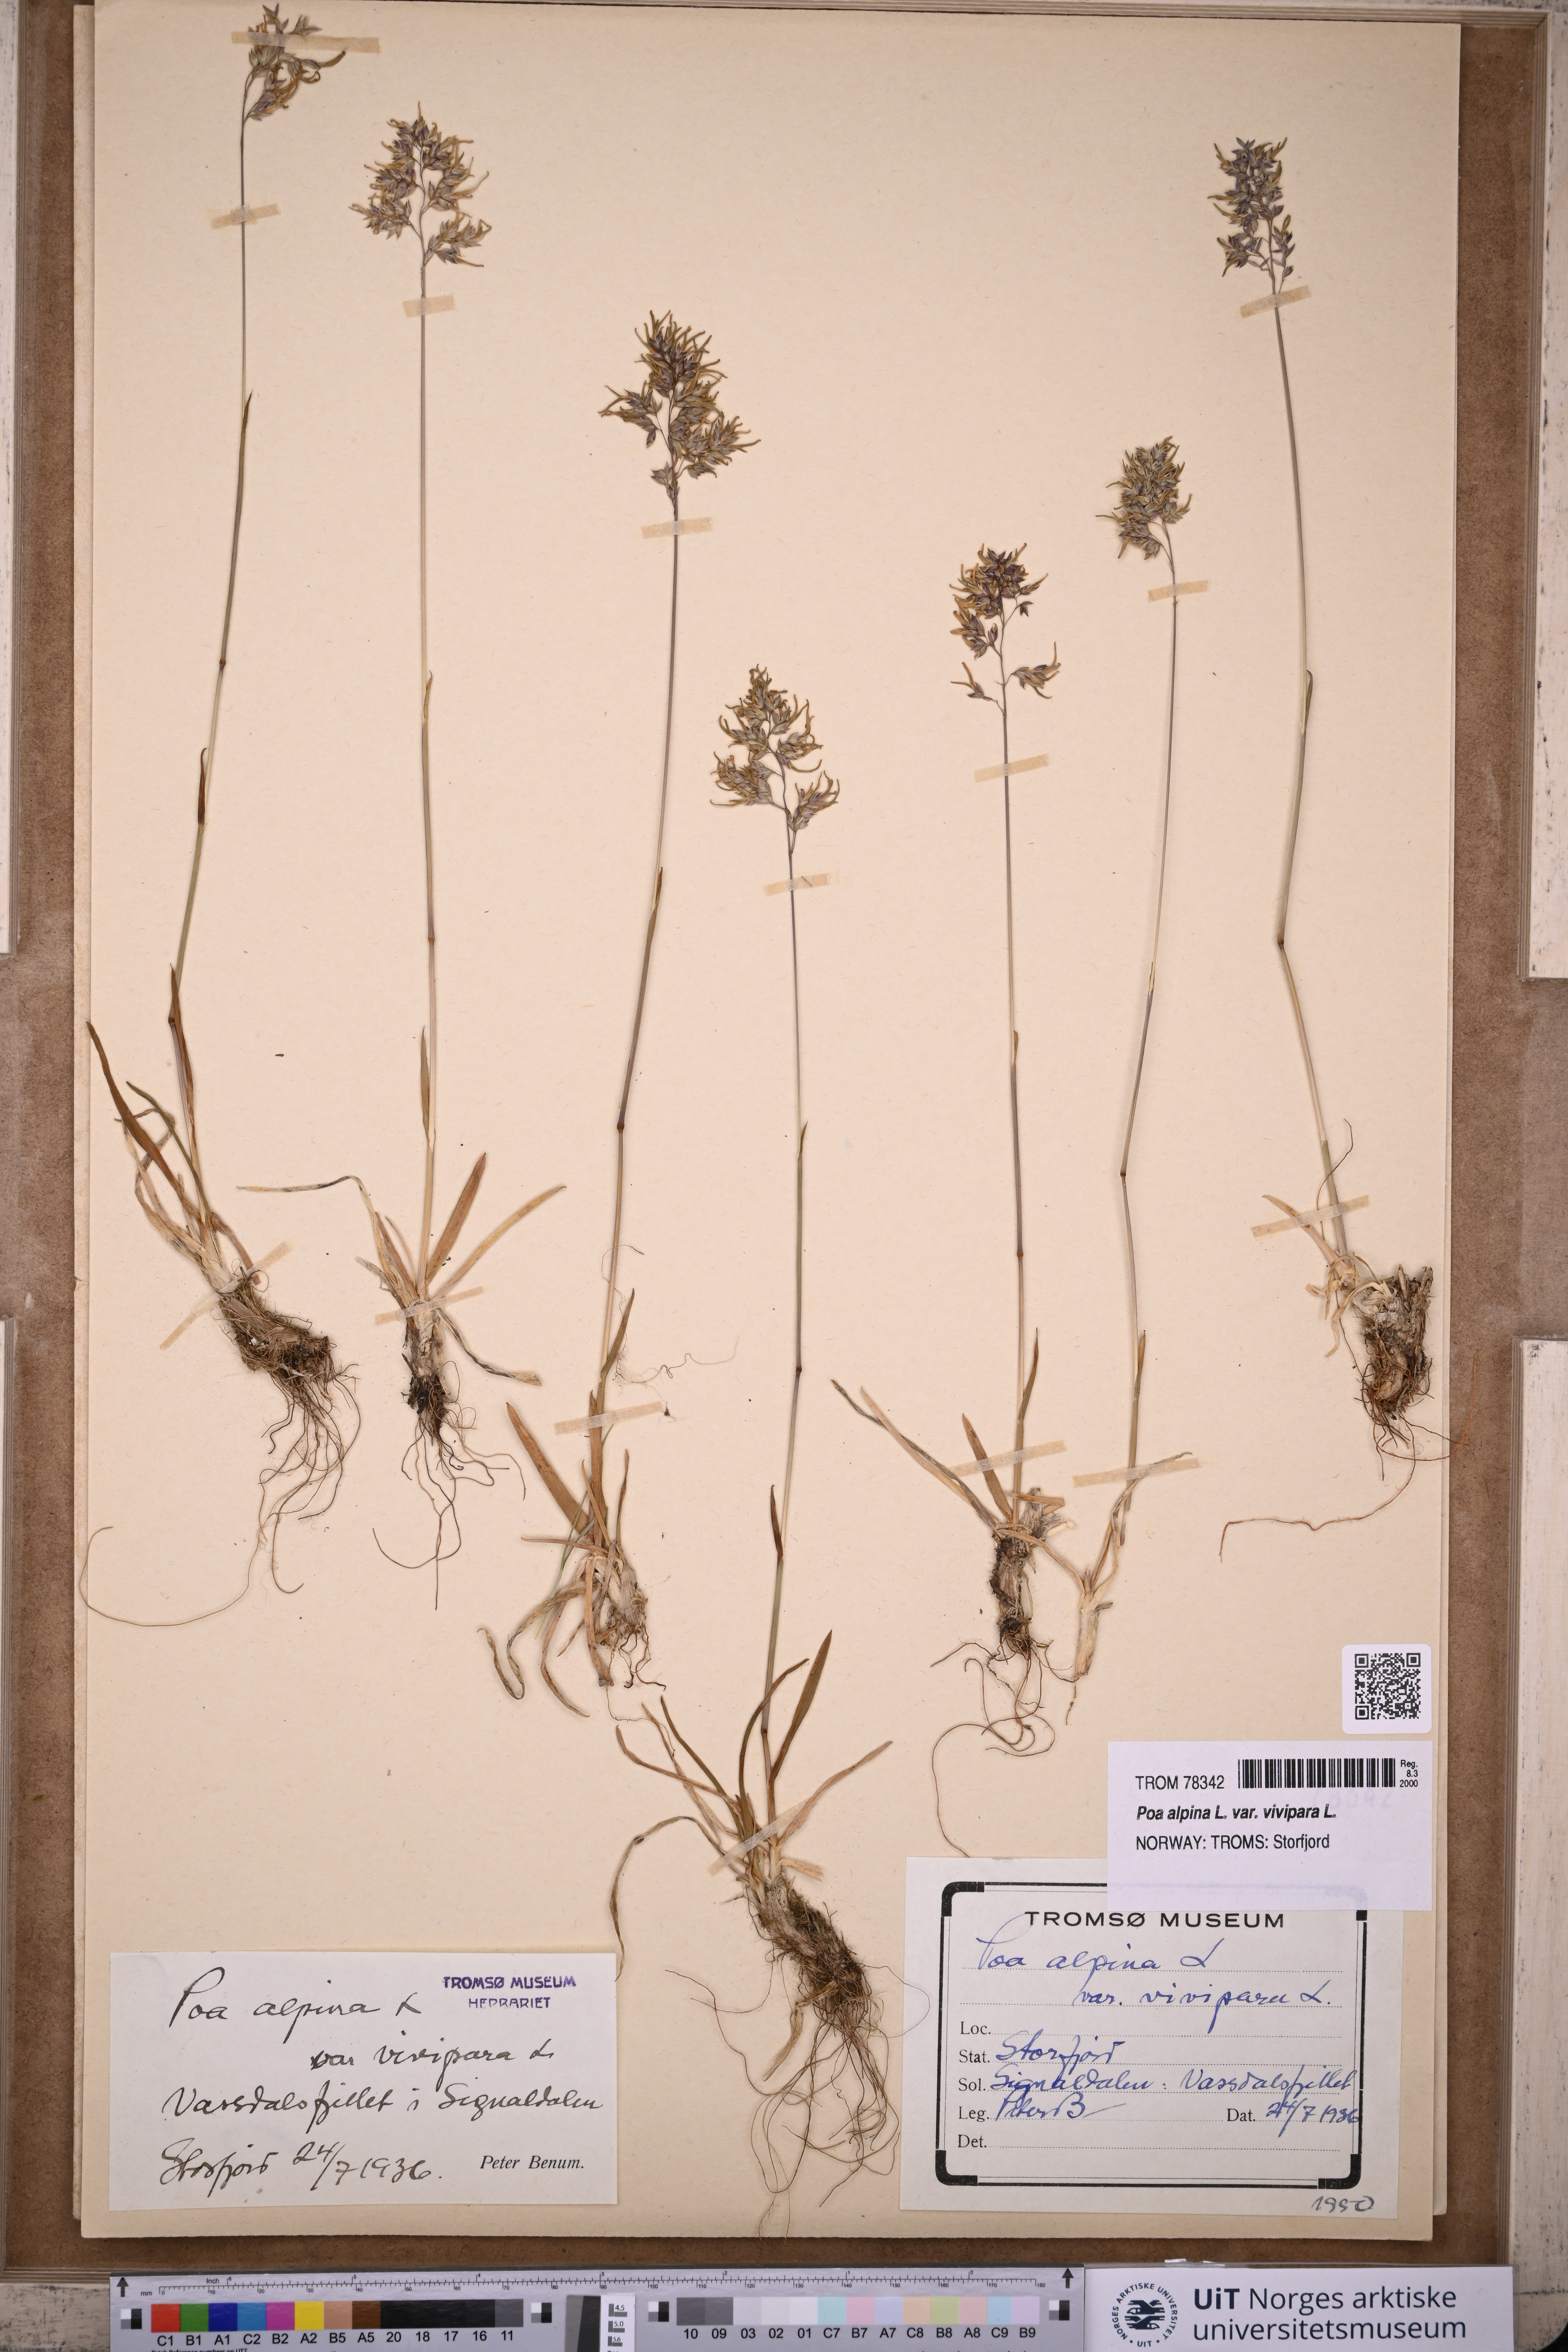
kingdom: Plantae
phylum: Tracheophyta
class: Liliopsida
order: Poales
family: Poaceae
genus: Poa
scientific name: Poa alpina
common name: Alpine bluegrass
